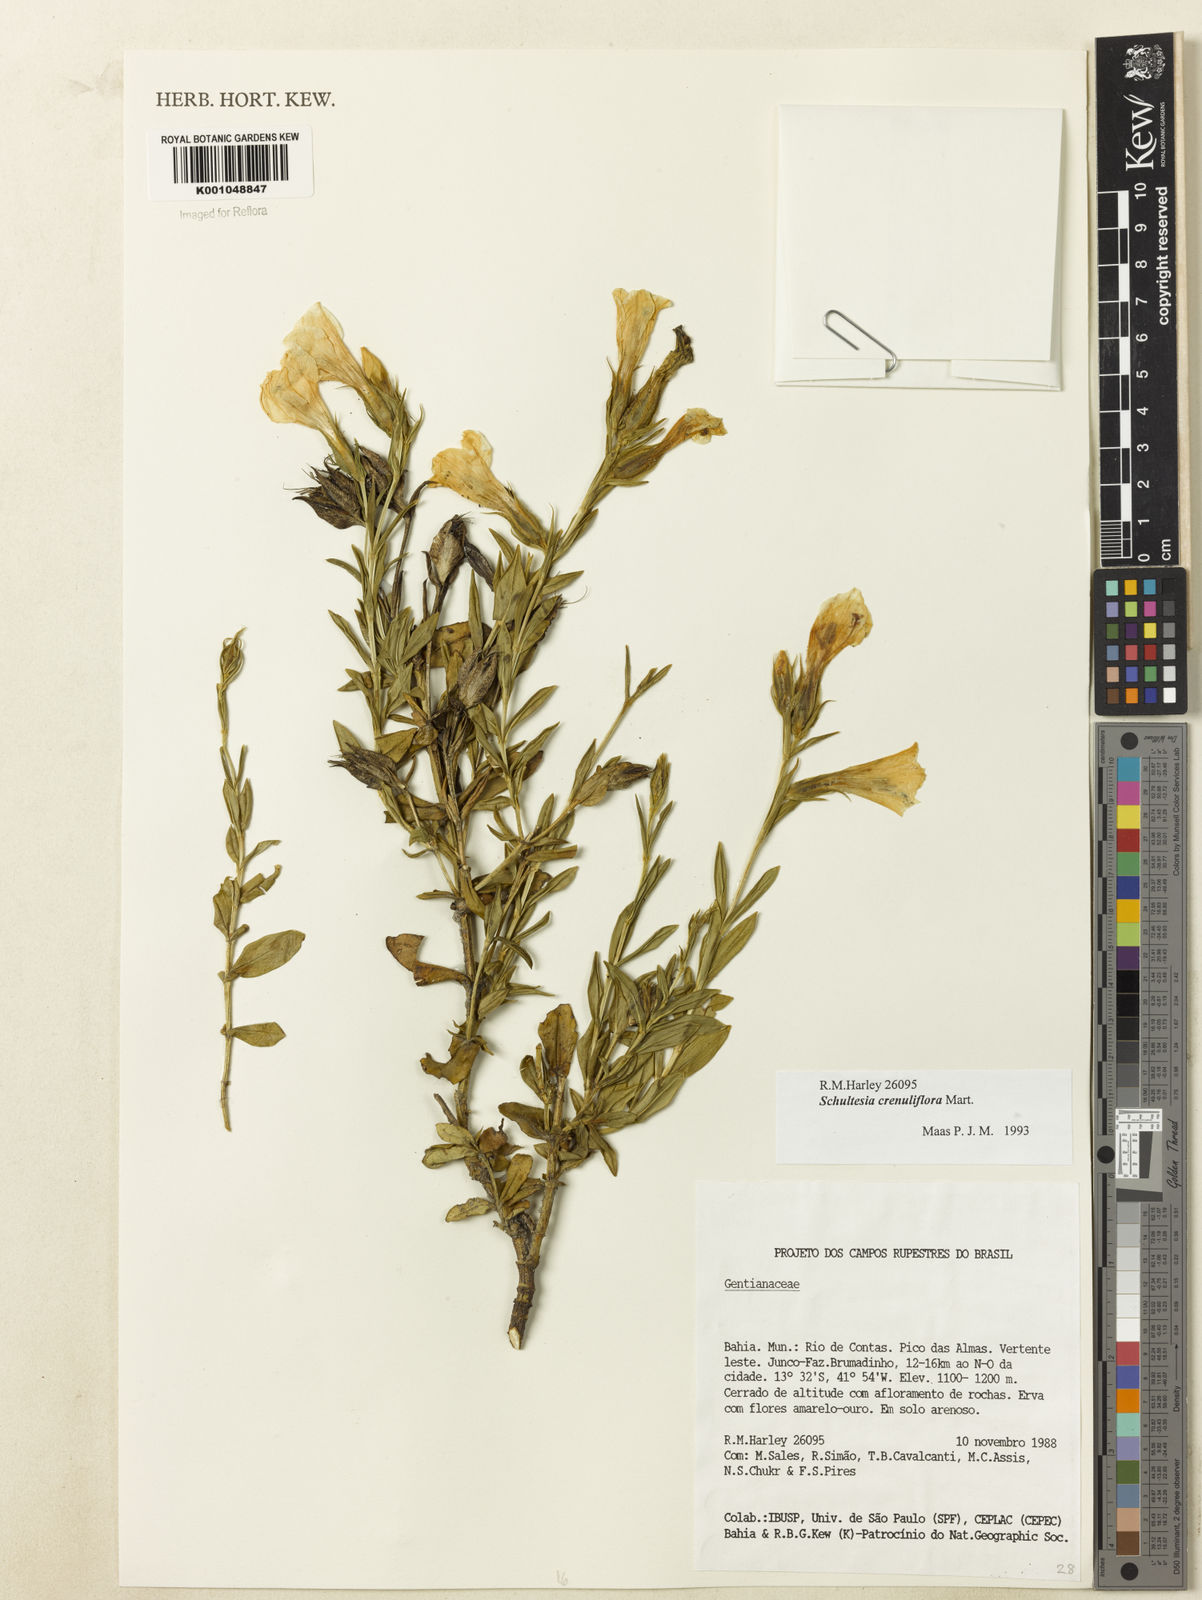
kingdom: Plantae
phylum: Tracheophyta
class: Magnoliopsida
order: Gentianales
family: Gentianaceae
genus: Schultesia
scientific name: Schultesia crenuliflora
